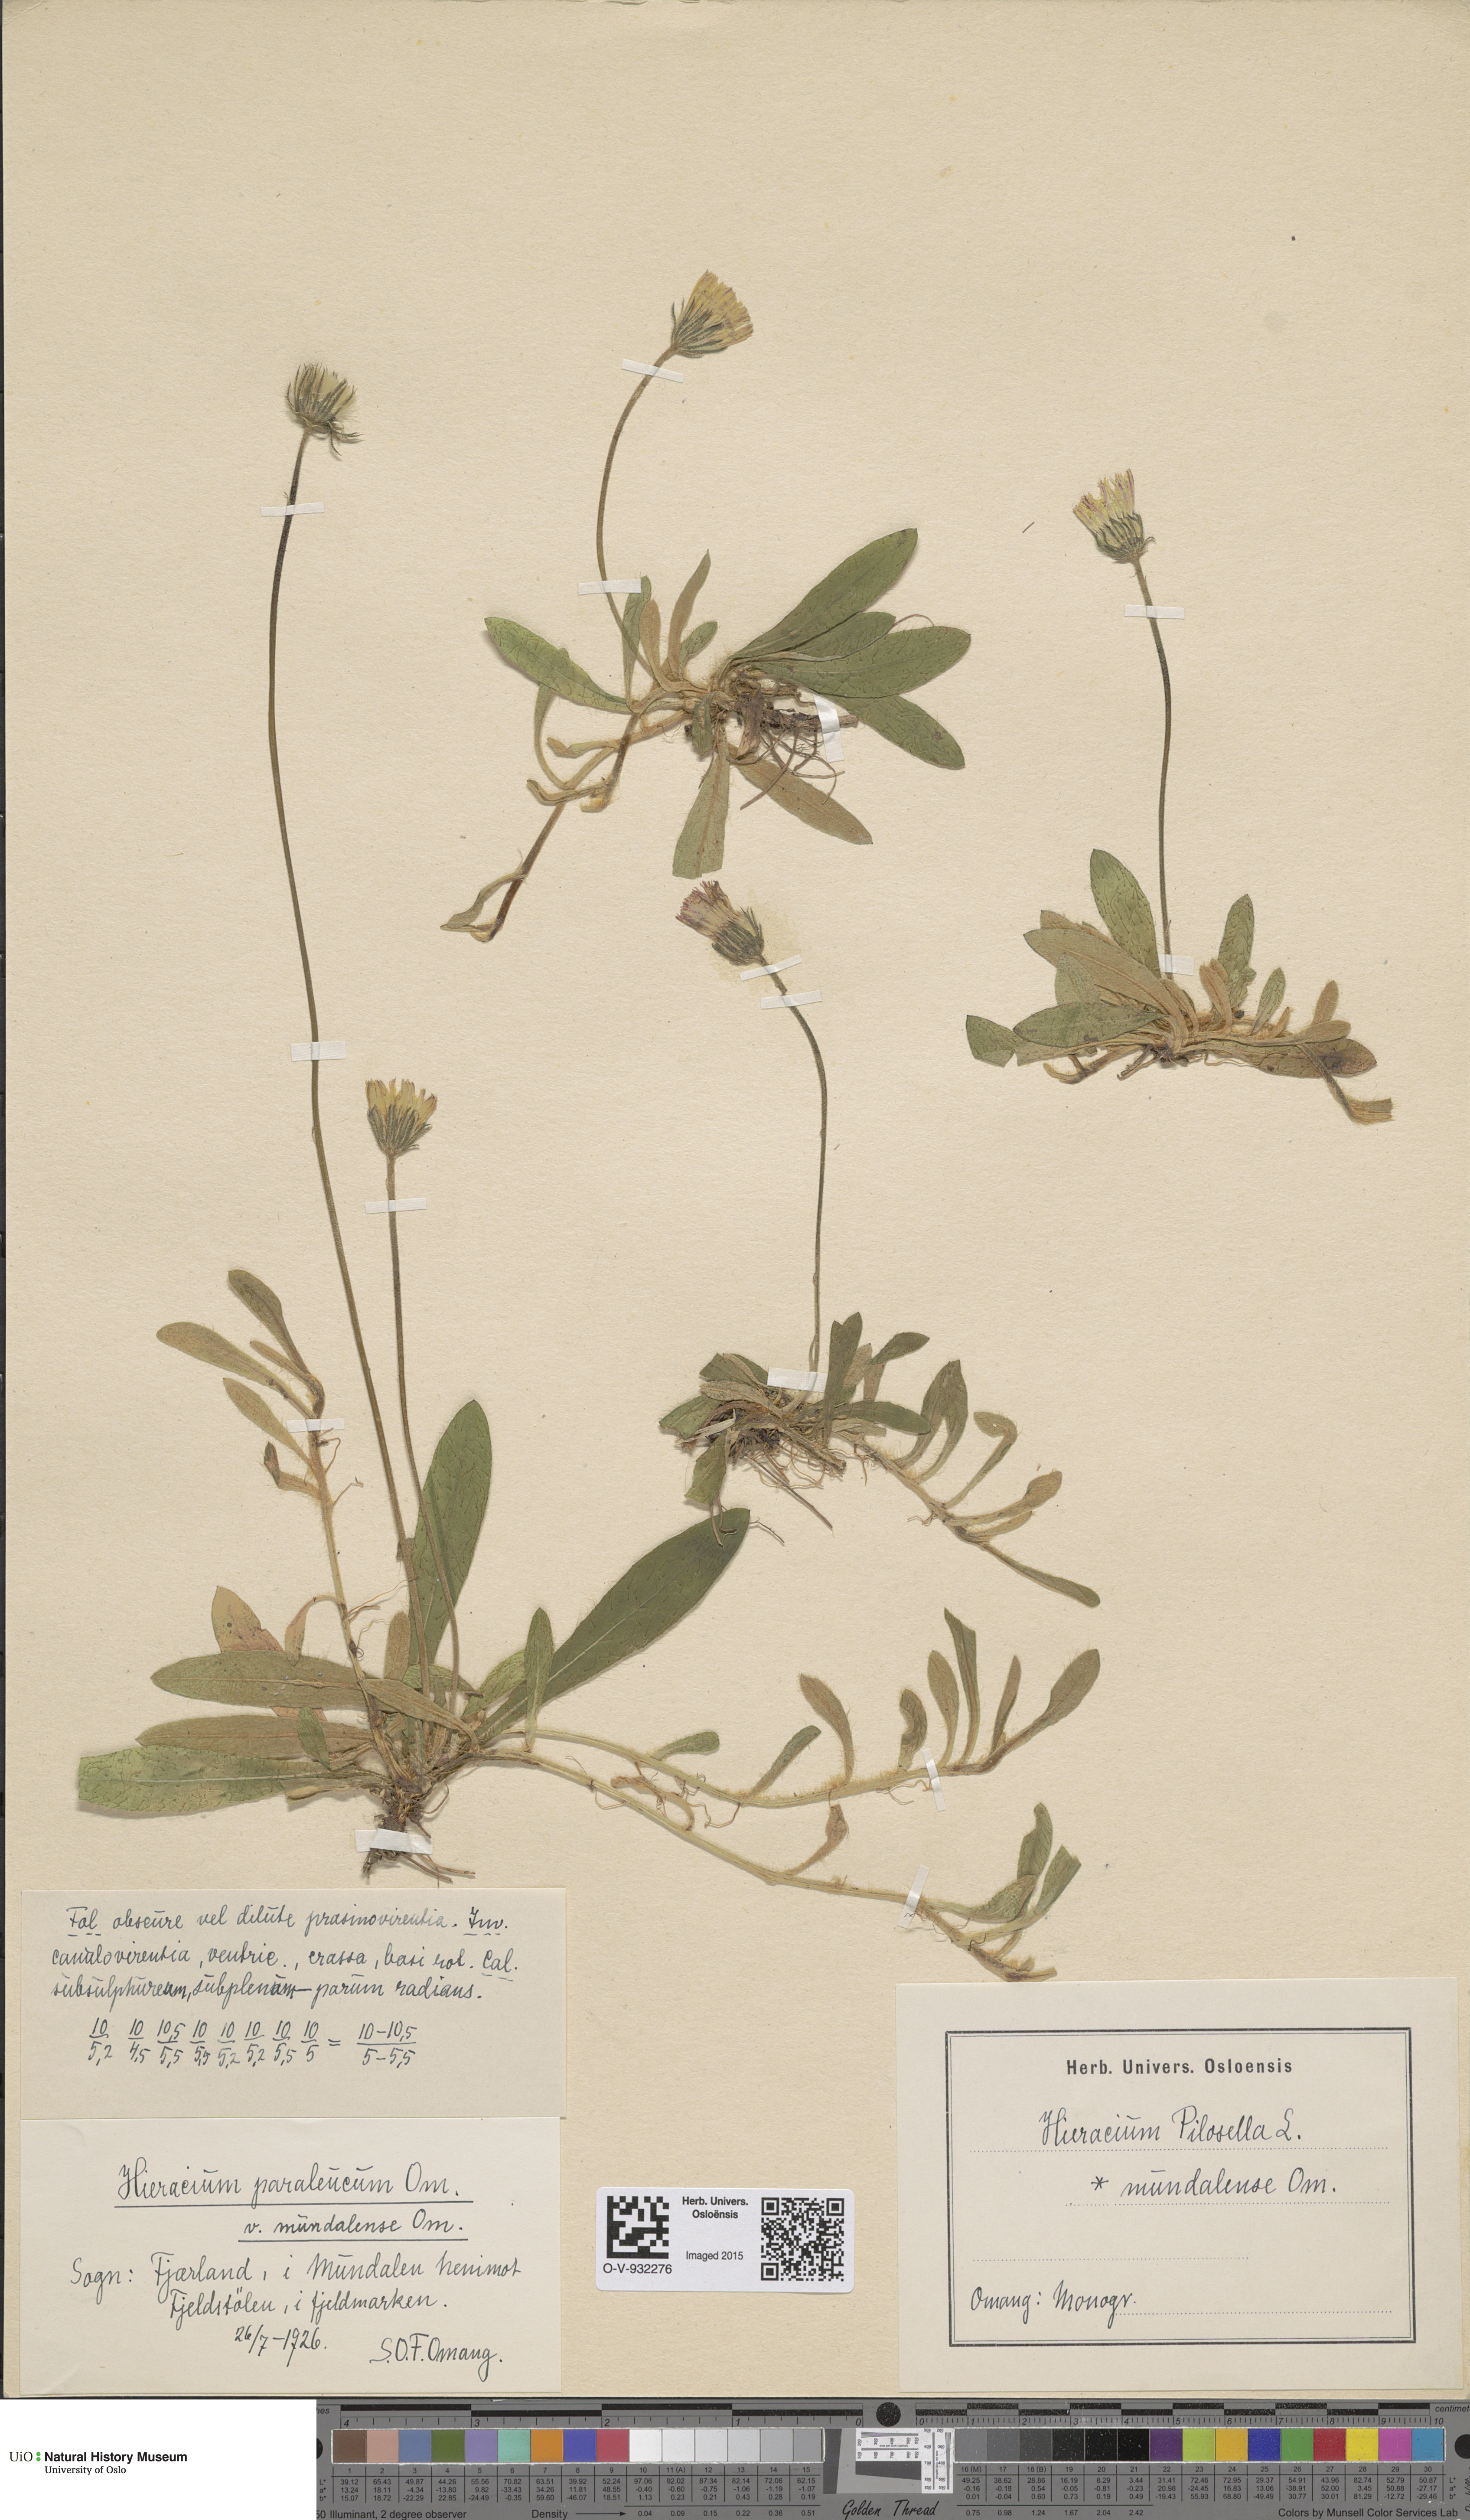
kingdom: Plantae
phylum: Tracheophyta
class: Magnoliopsida
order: Asterales
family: Asteraceae
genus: Pilosella
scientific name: Pilosella officinarum
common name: Mouse-ear hawkweed
